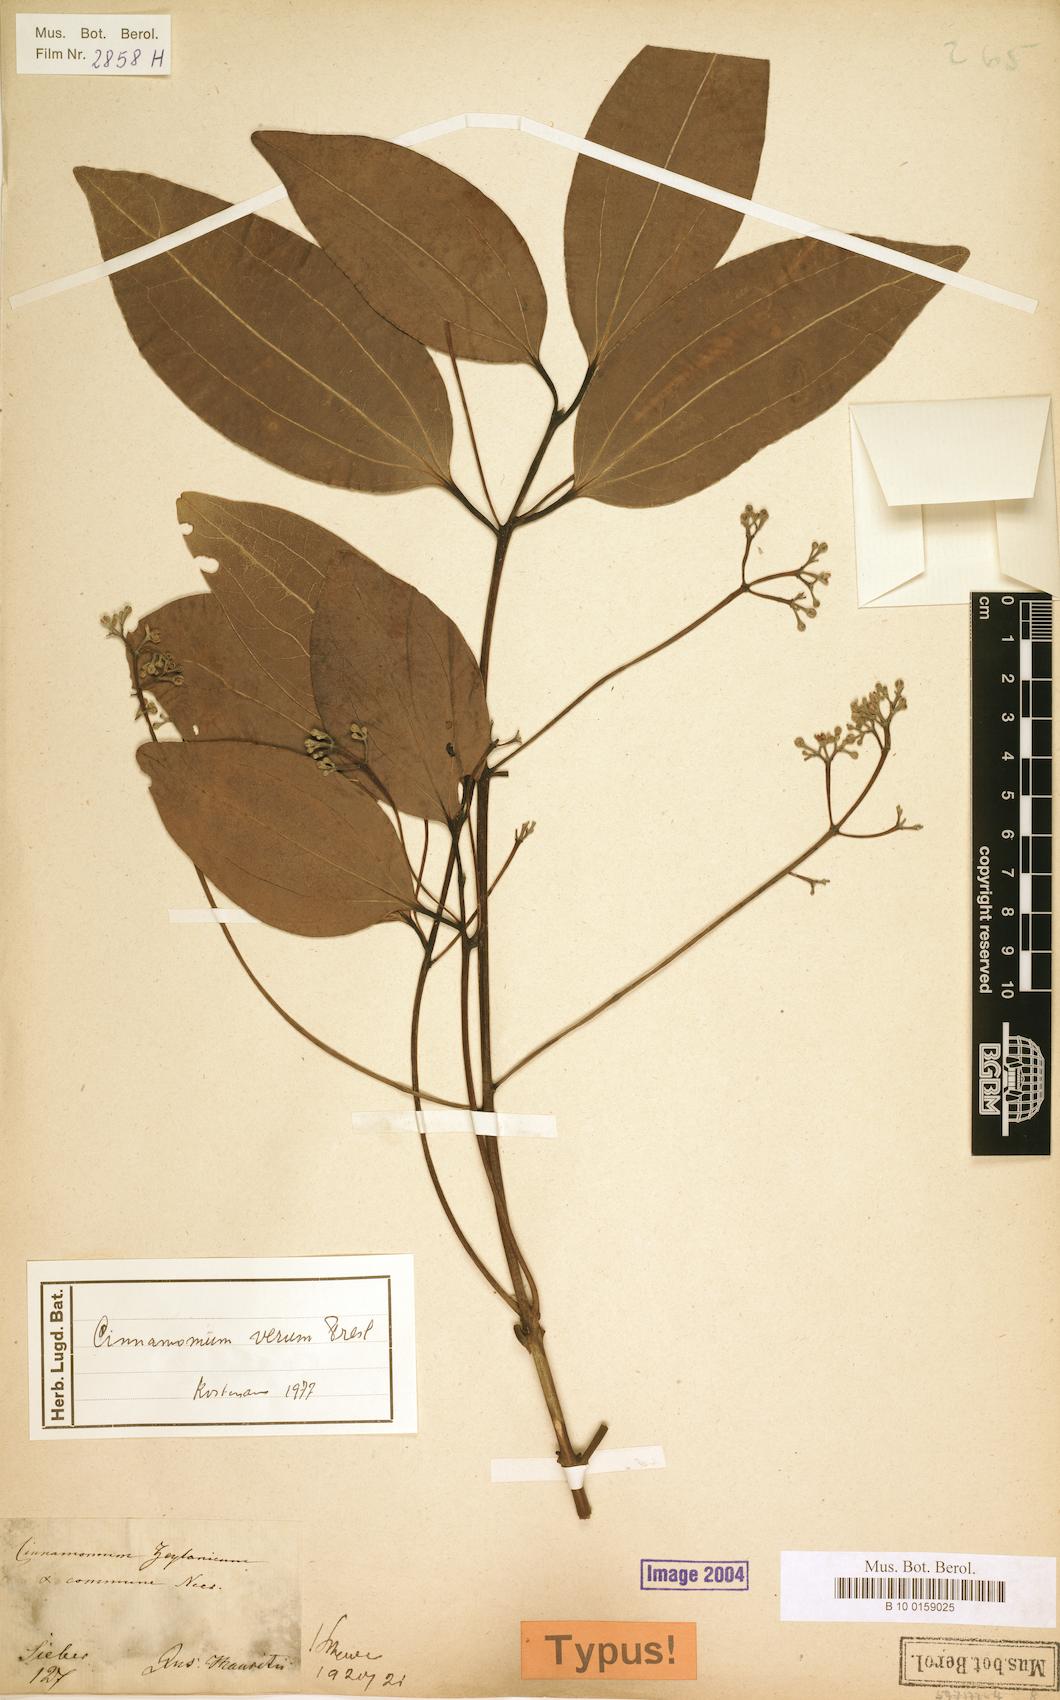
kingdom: Plantae
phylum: Tracheophyta
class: Magnoliopsida
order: Laurales
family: Lauraceae
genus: Cinnamomum
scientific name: Cinnamomum verum
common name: Cinnamon
